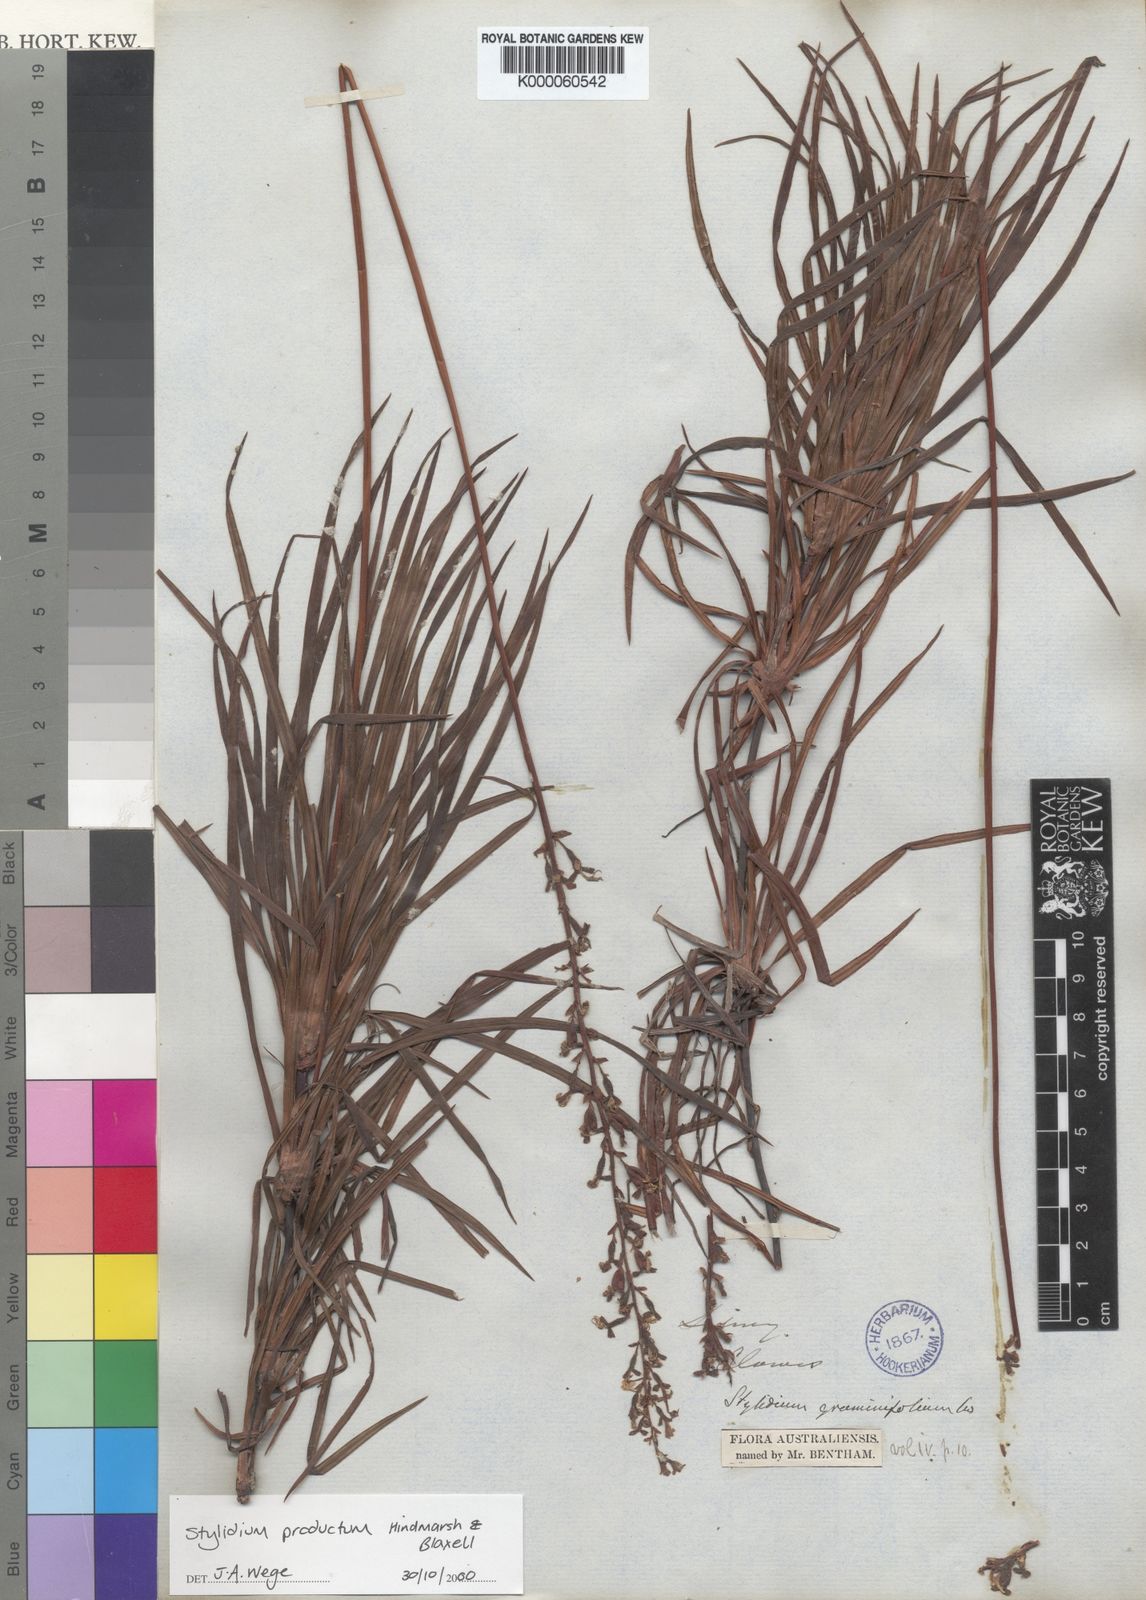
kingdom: Plantae
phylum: Tracheophyta
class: Magnoliopsida
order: Asterales
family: Stylidiaceae
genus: Stylidium
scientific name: Stylidium productum
